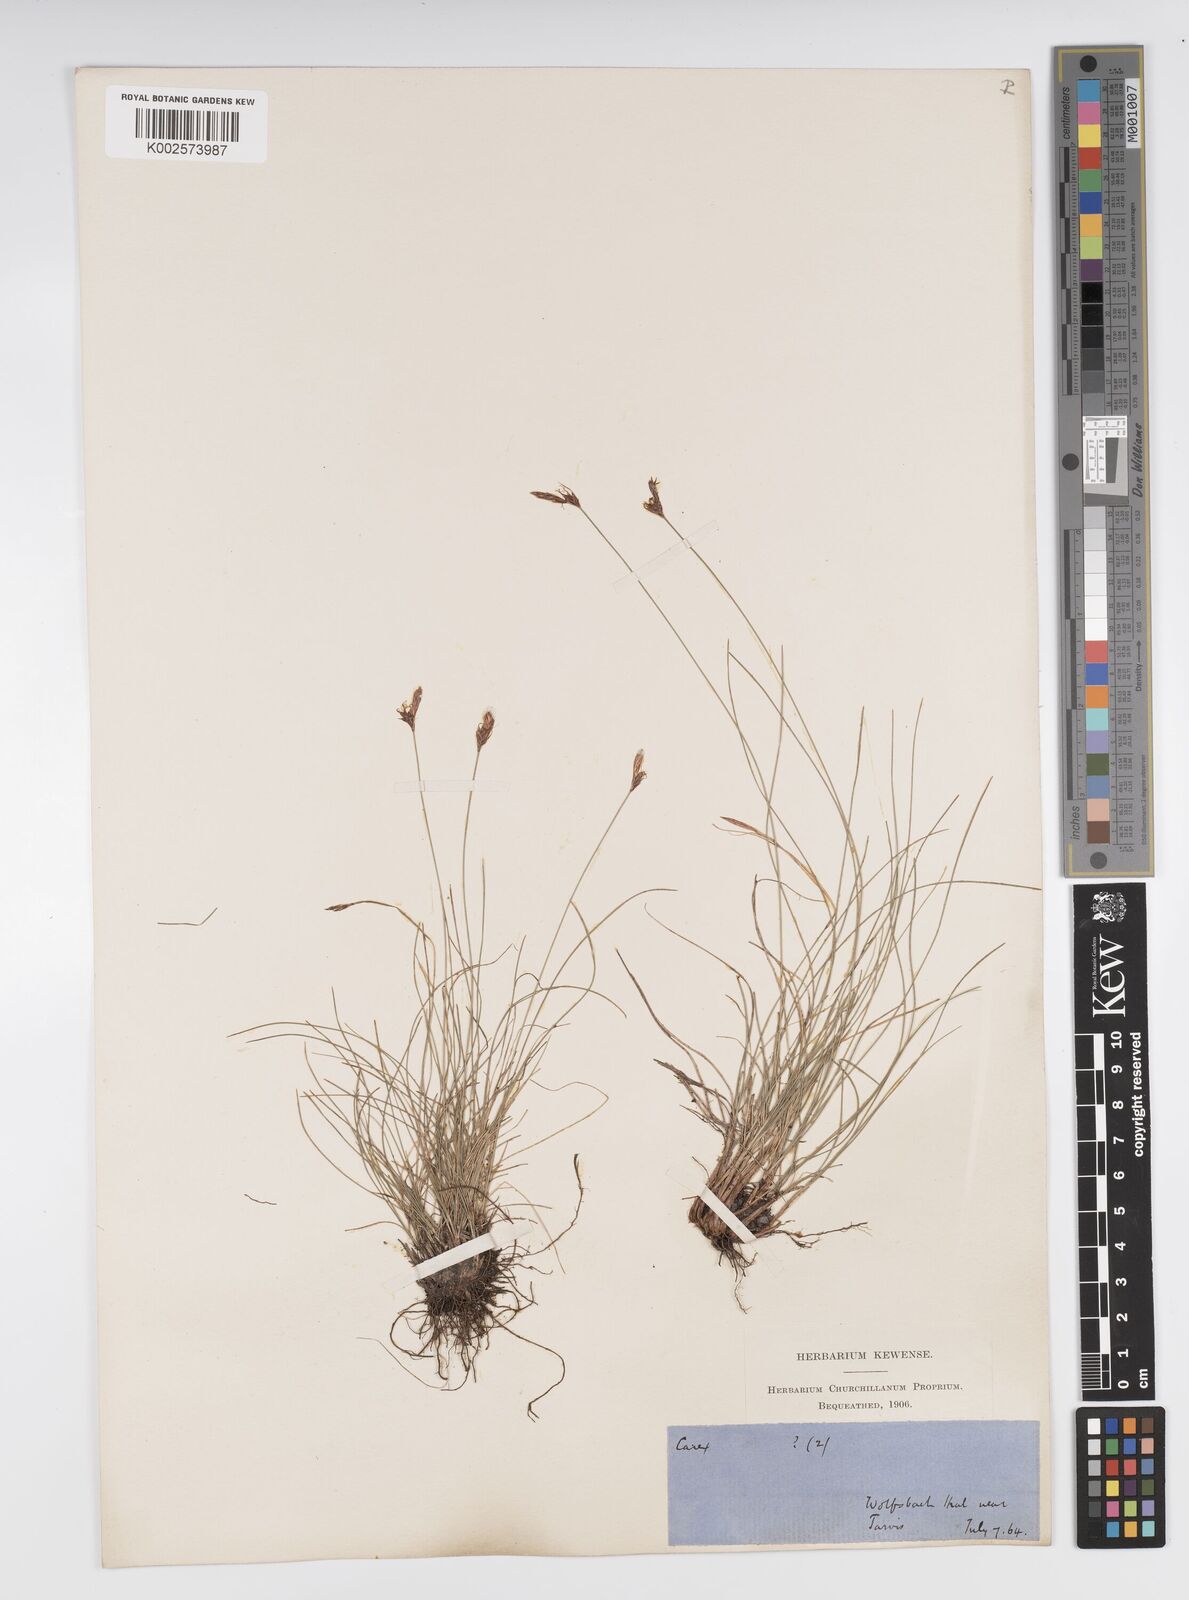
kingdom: Plantae
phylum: Tracheophyta
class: Liliopsida
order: Poales
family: Cyperaceae
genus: Carex
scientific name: Carex mucronata
